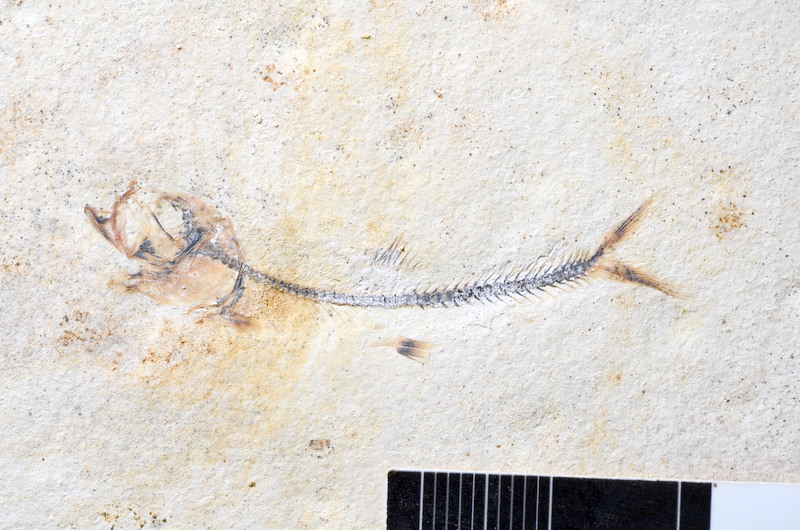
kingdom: Animalia
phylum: Chordata
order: Salmoniformes
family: Orthogonikleithridae
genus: Orthogonikleithrus
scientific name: Orthogonikleithrus hoelli
